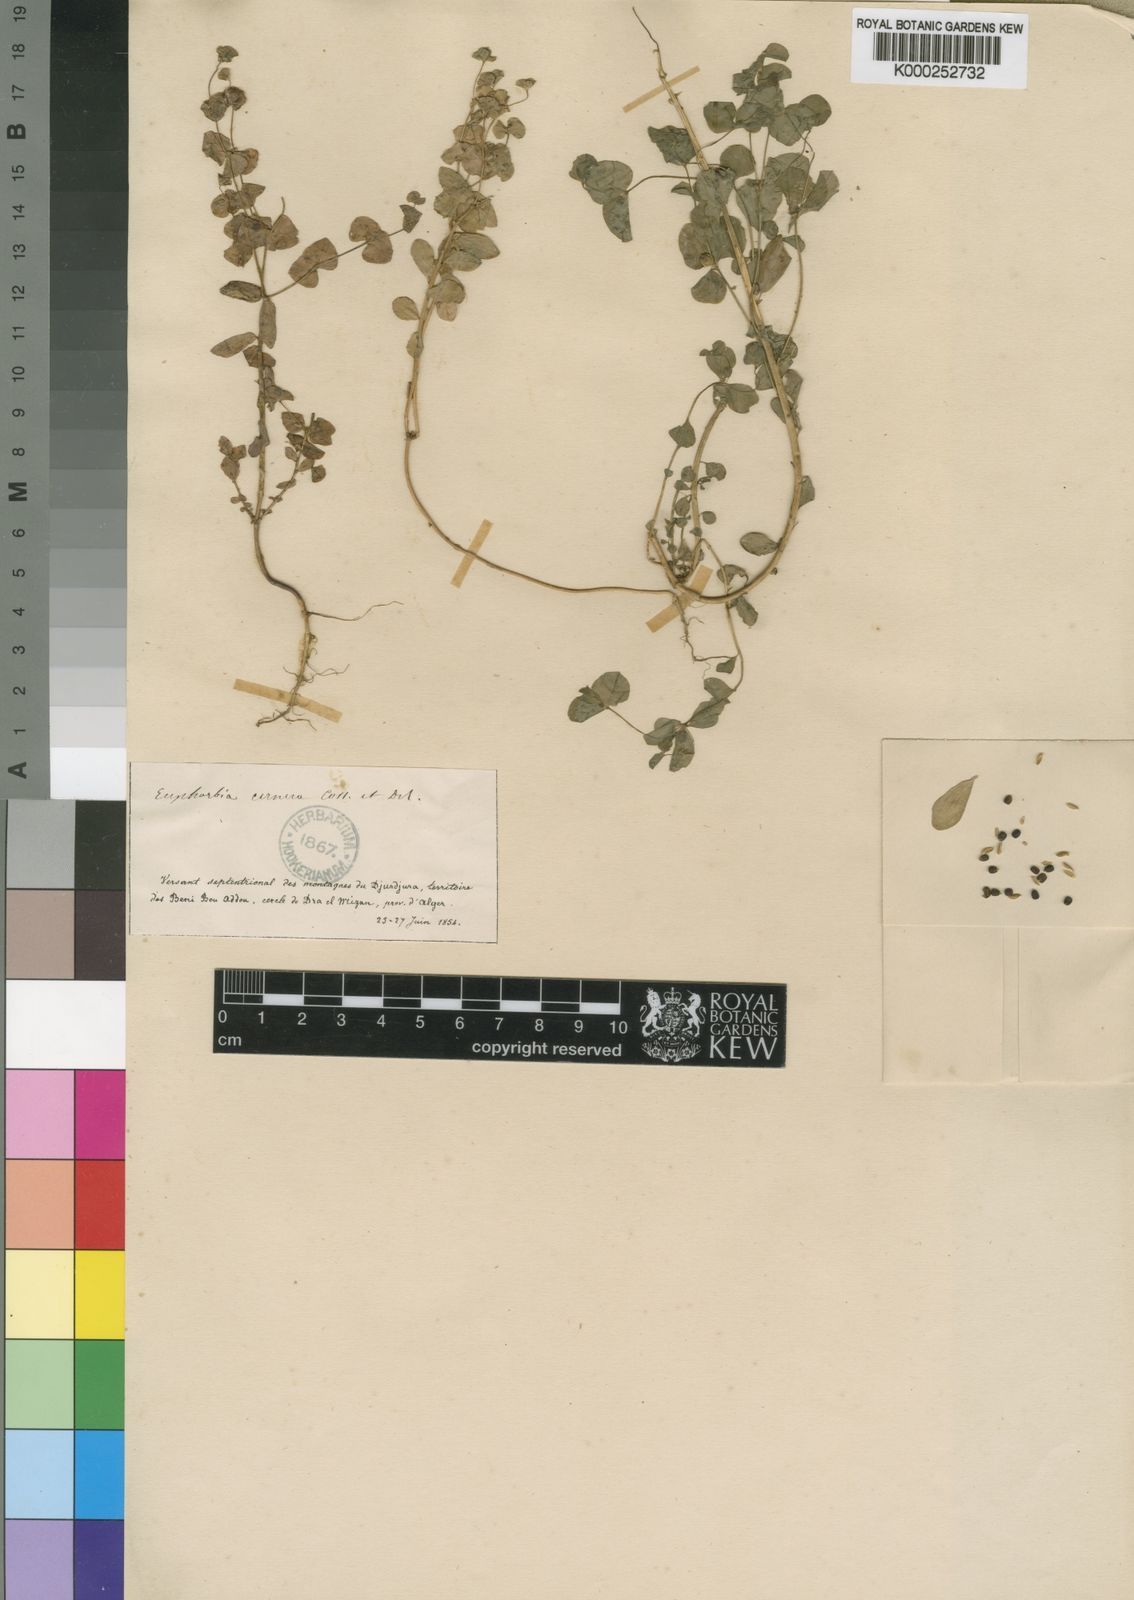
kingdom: Plantae
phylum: Tracheophyta
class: Magnoliopsida
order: Malpighiales
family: Euphorbiaceae
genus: Euphorbia
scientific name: Euphorbia phymatosperma
